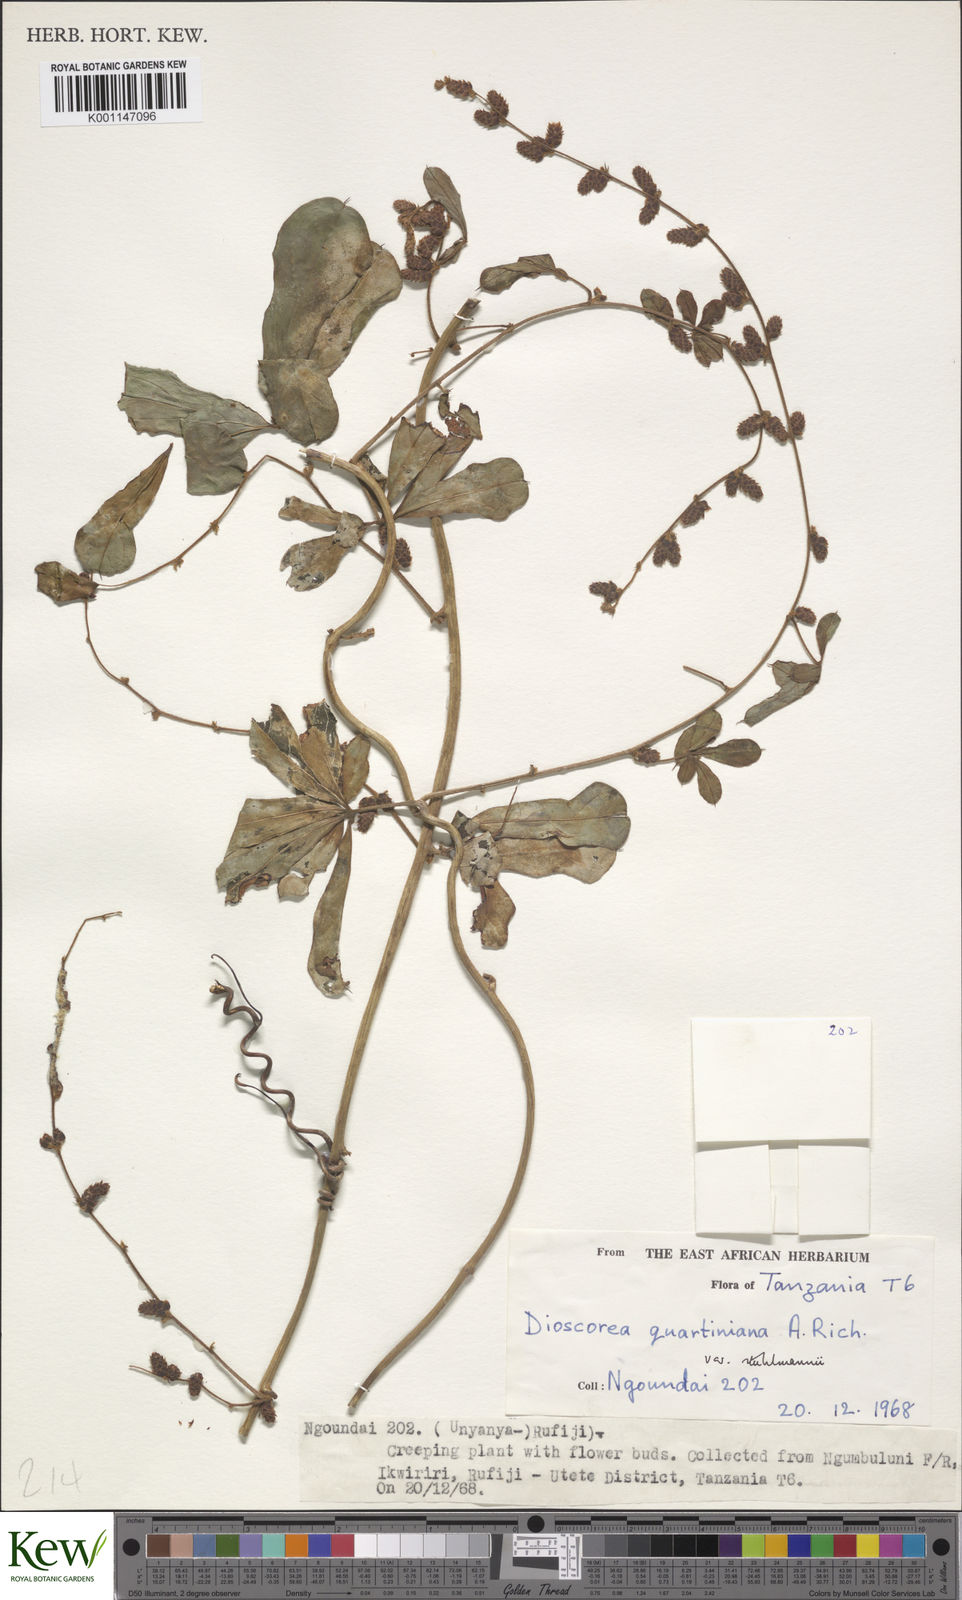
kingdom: Plantae
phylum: Tracheophyta
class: Liliopsida
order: Dioscoreales
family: Dioscoreaceae
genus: Dioscorea
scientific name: Dioscorea quartiniana
